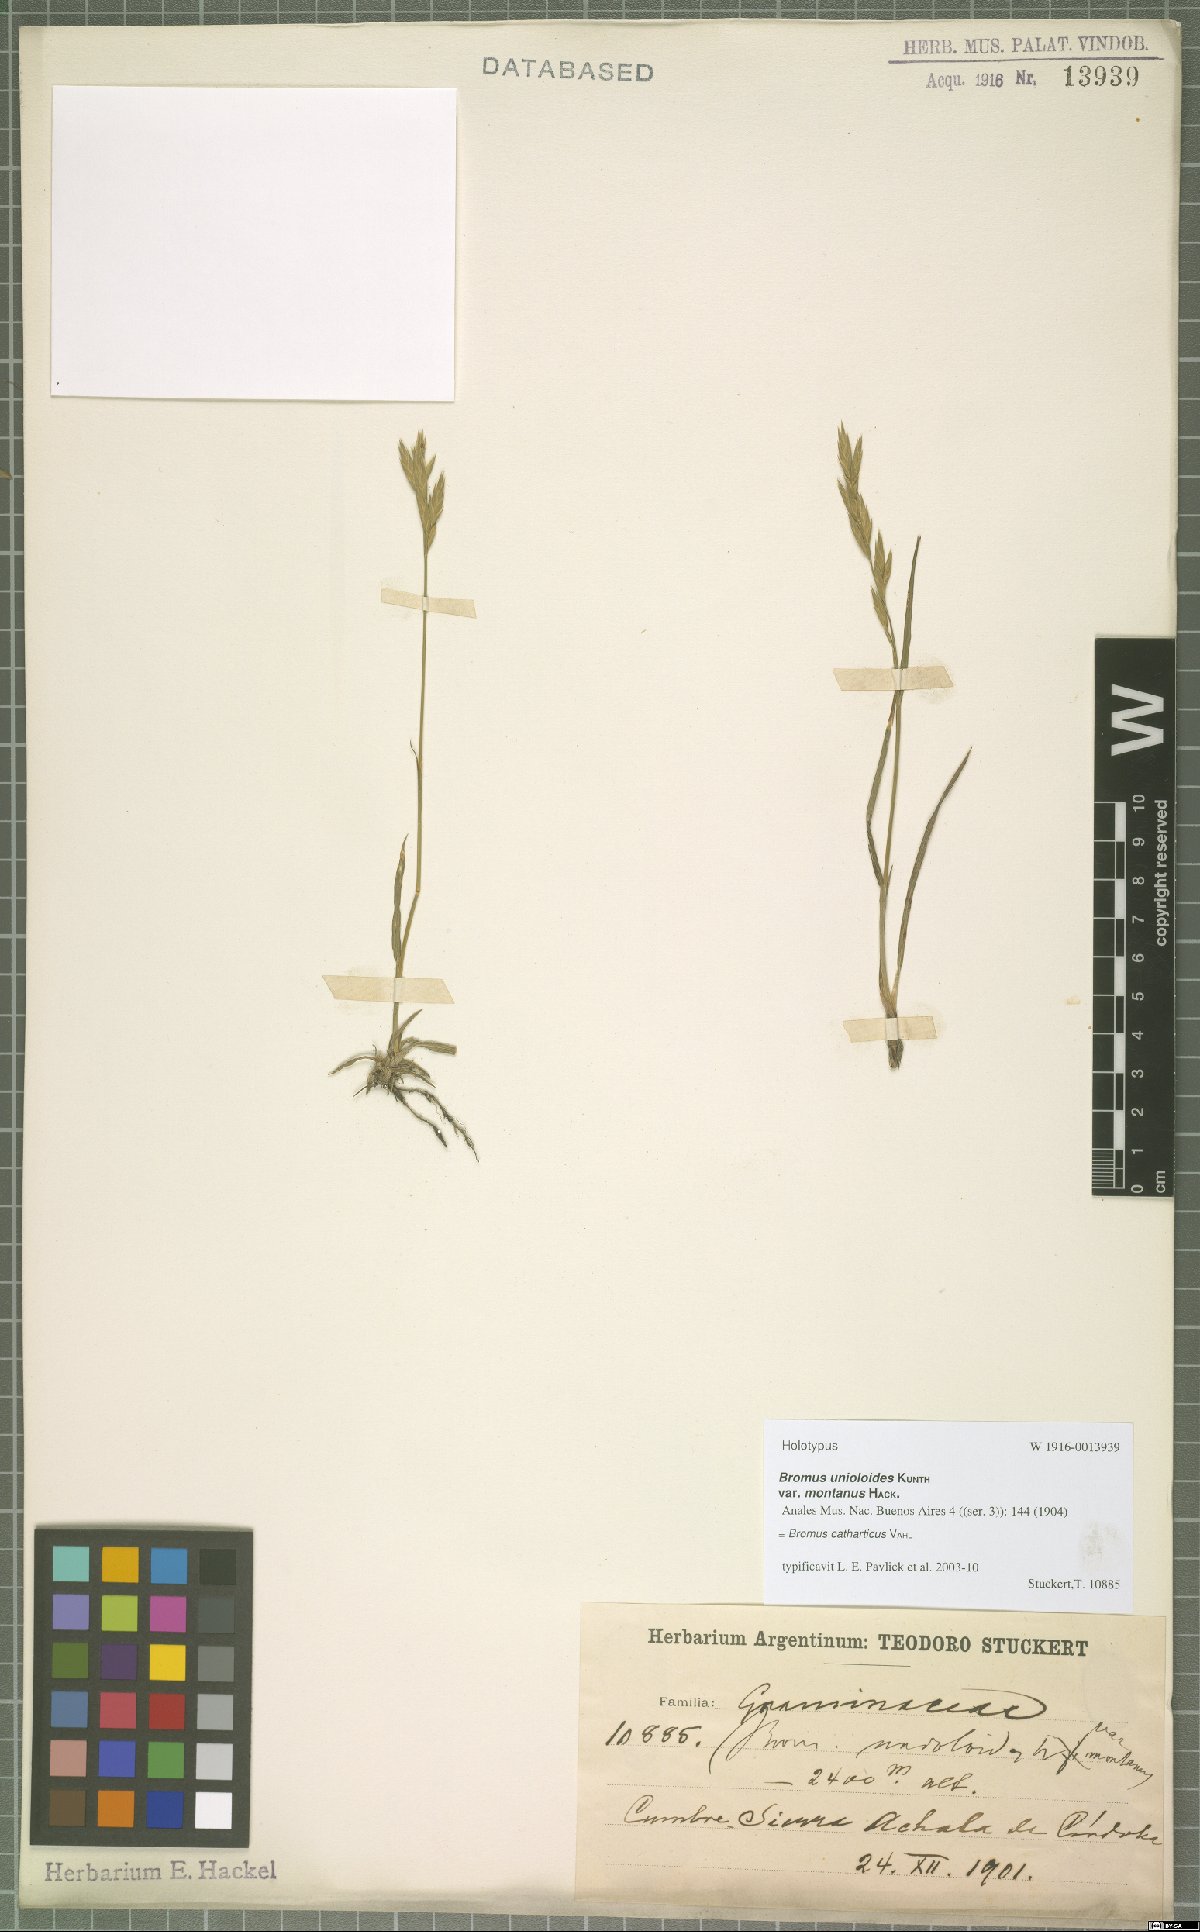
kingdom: Plantae
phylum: Tracheophyta
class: Liliopsida
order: Poales
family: Poaceae
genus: Bromus
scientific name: Bromus catharticus
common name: Rescuegrass
